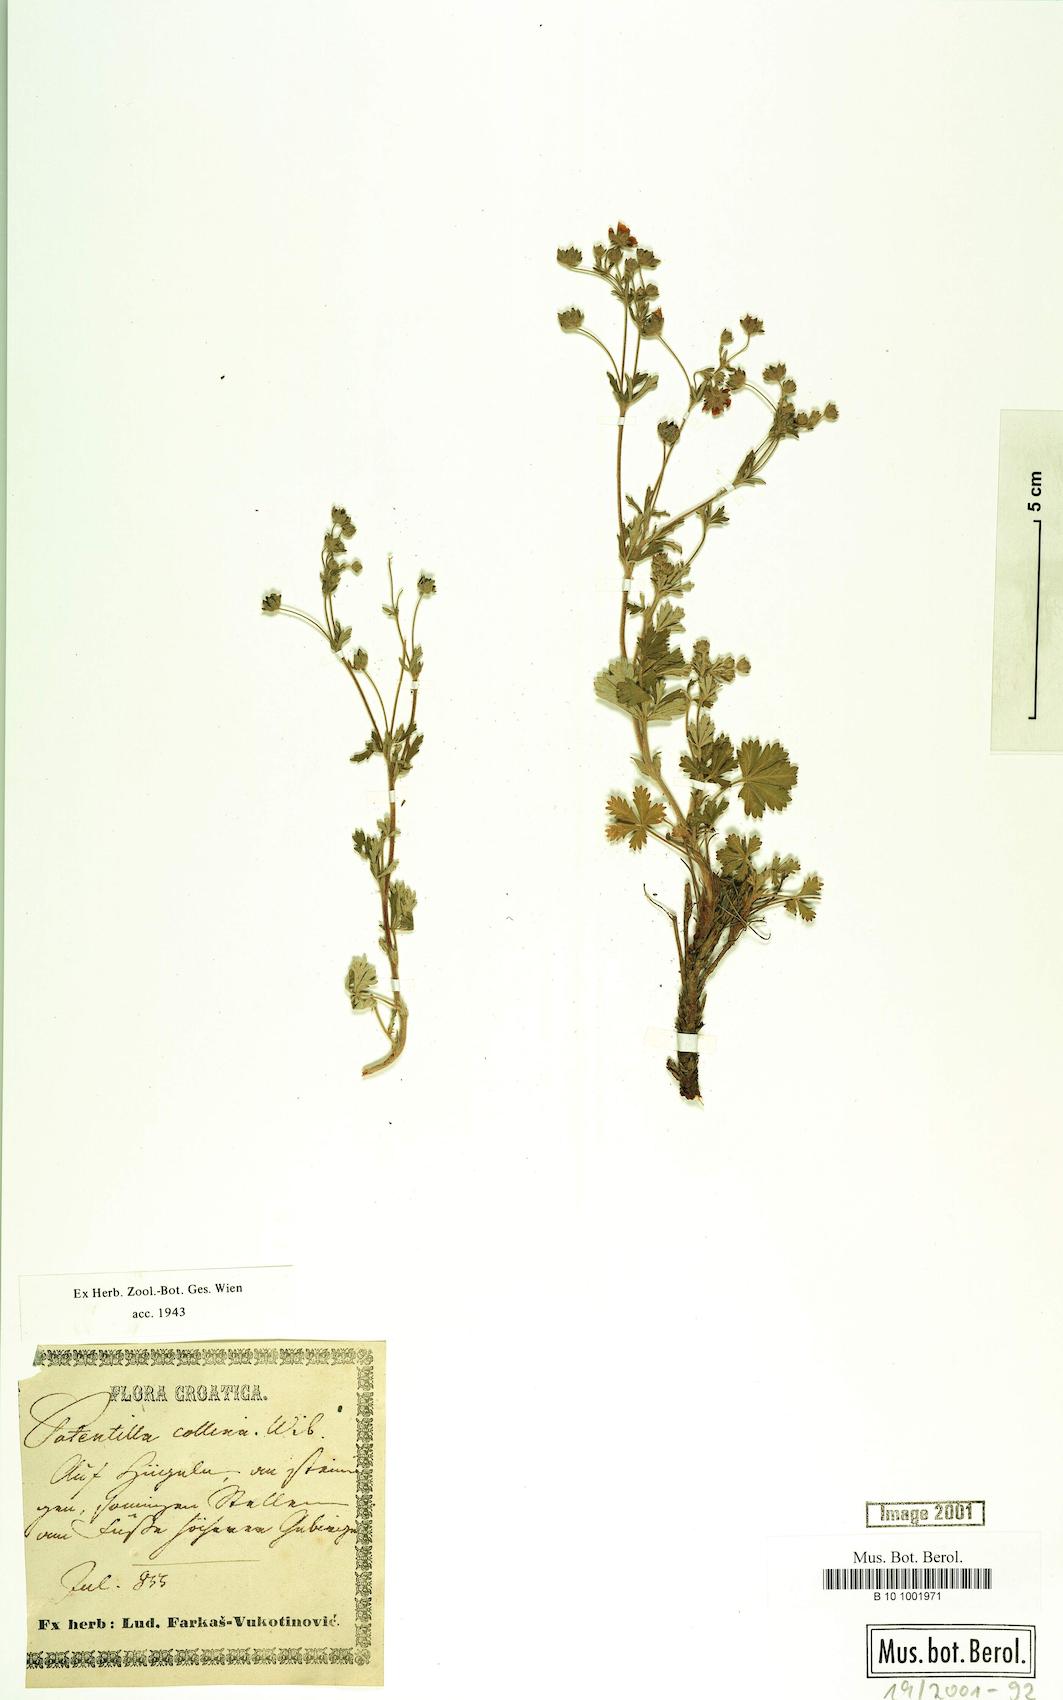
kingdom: Plantae
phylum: Tracheophyta
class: Magnoliopsida
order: Rosales
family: Rosaceae
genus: Potentilla
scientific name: Potentilla collina
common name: Palmleaf cinquefoil
